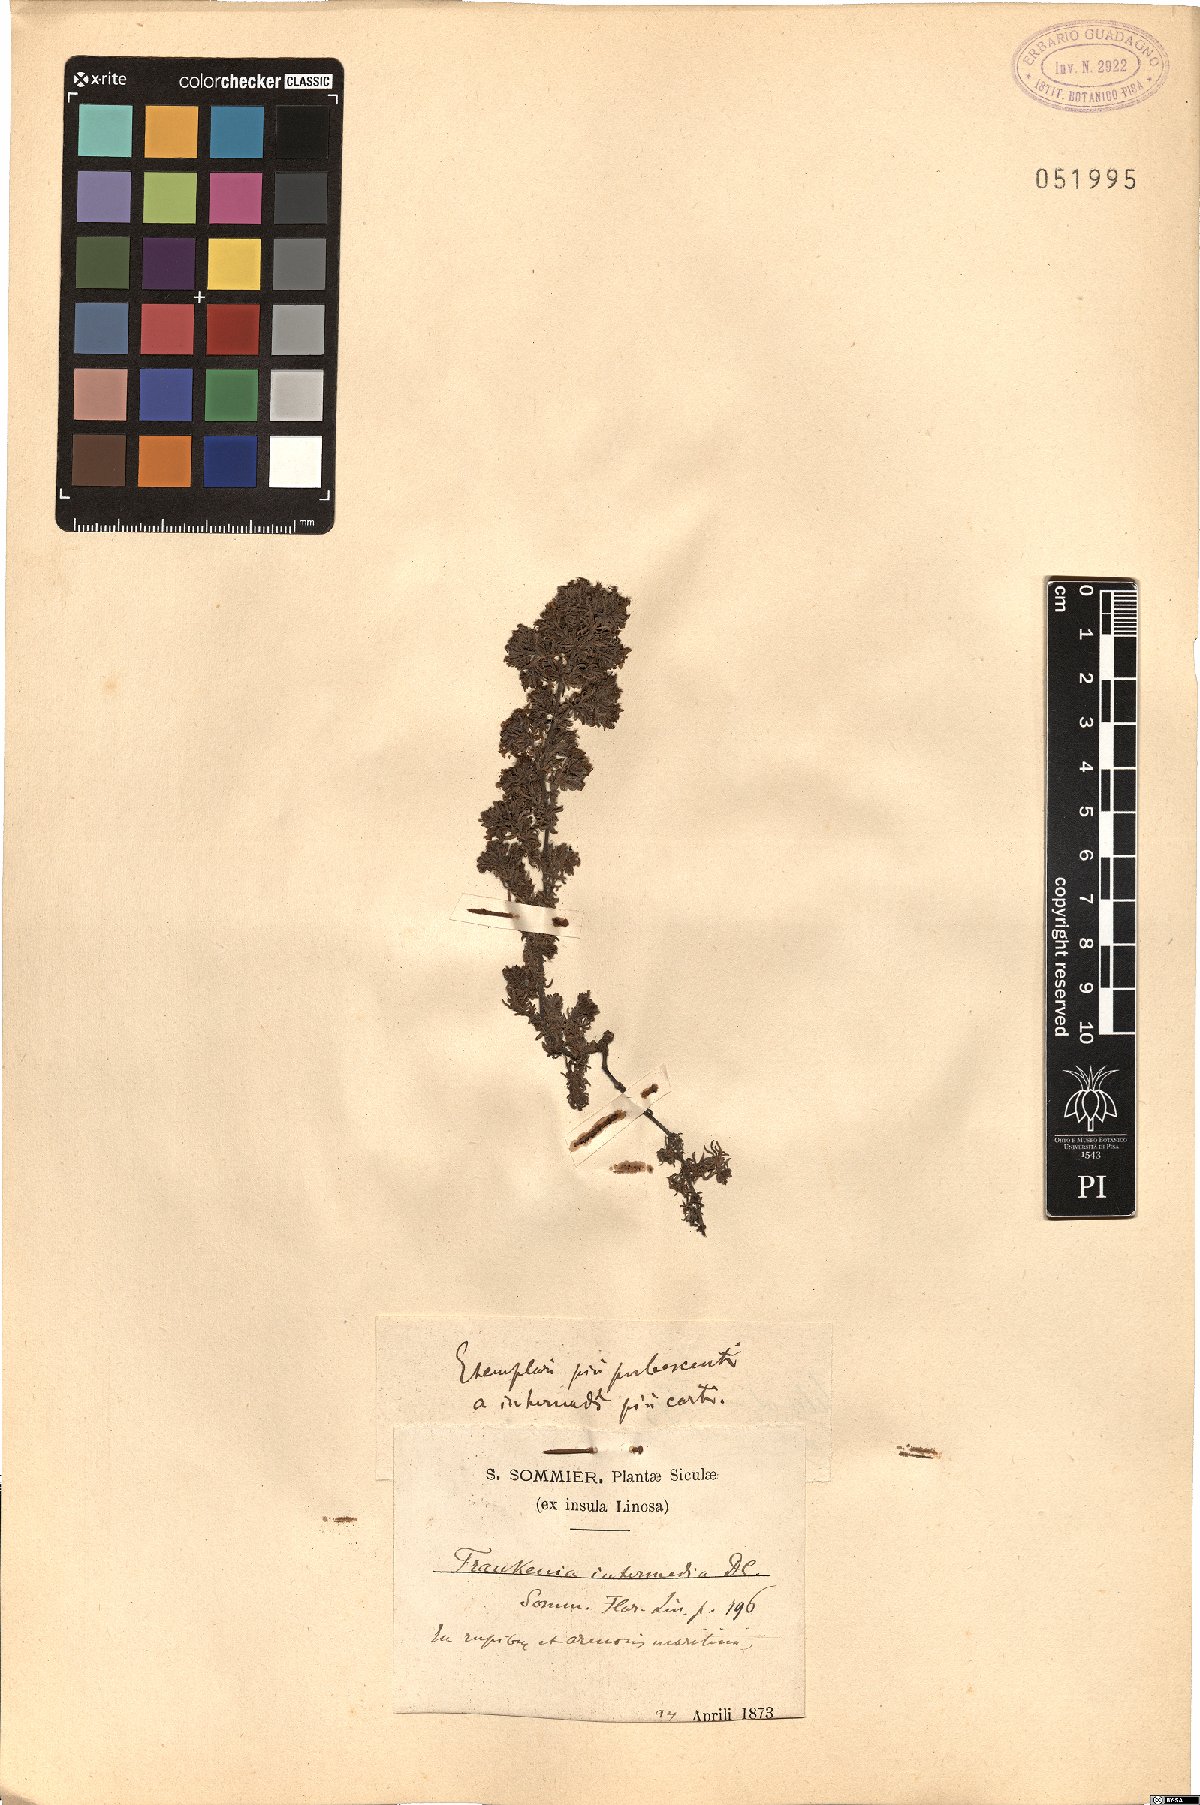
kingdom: Plantae
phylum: Tracheophyta
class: Magnoliopsida
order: Caryophyllales
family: Frankeniaceae
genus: Frankenia
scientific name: Frankenia hirsuta
